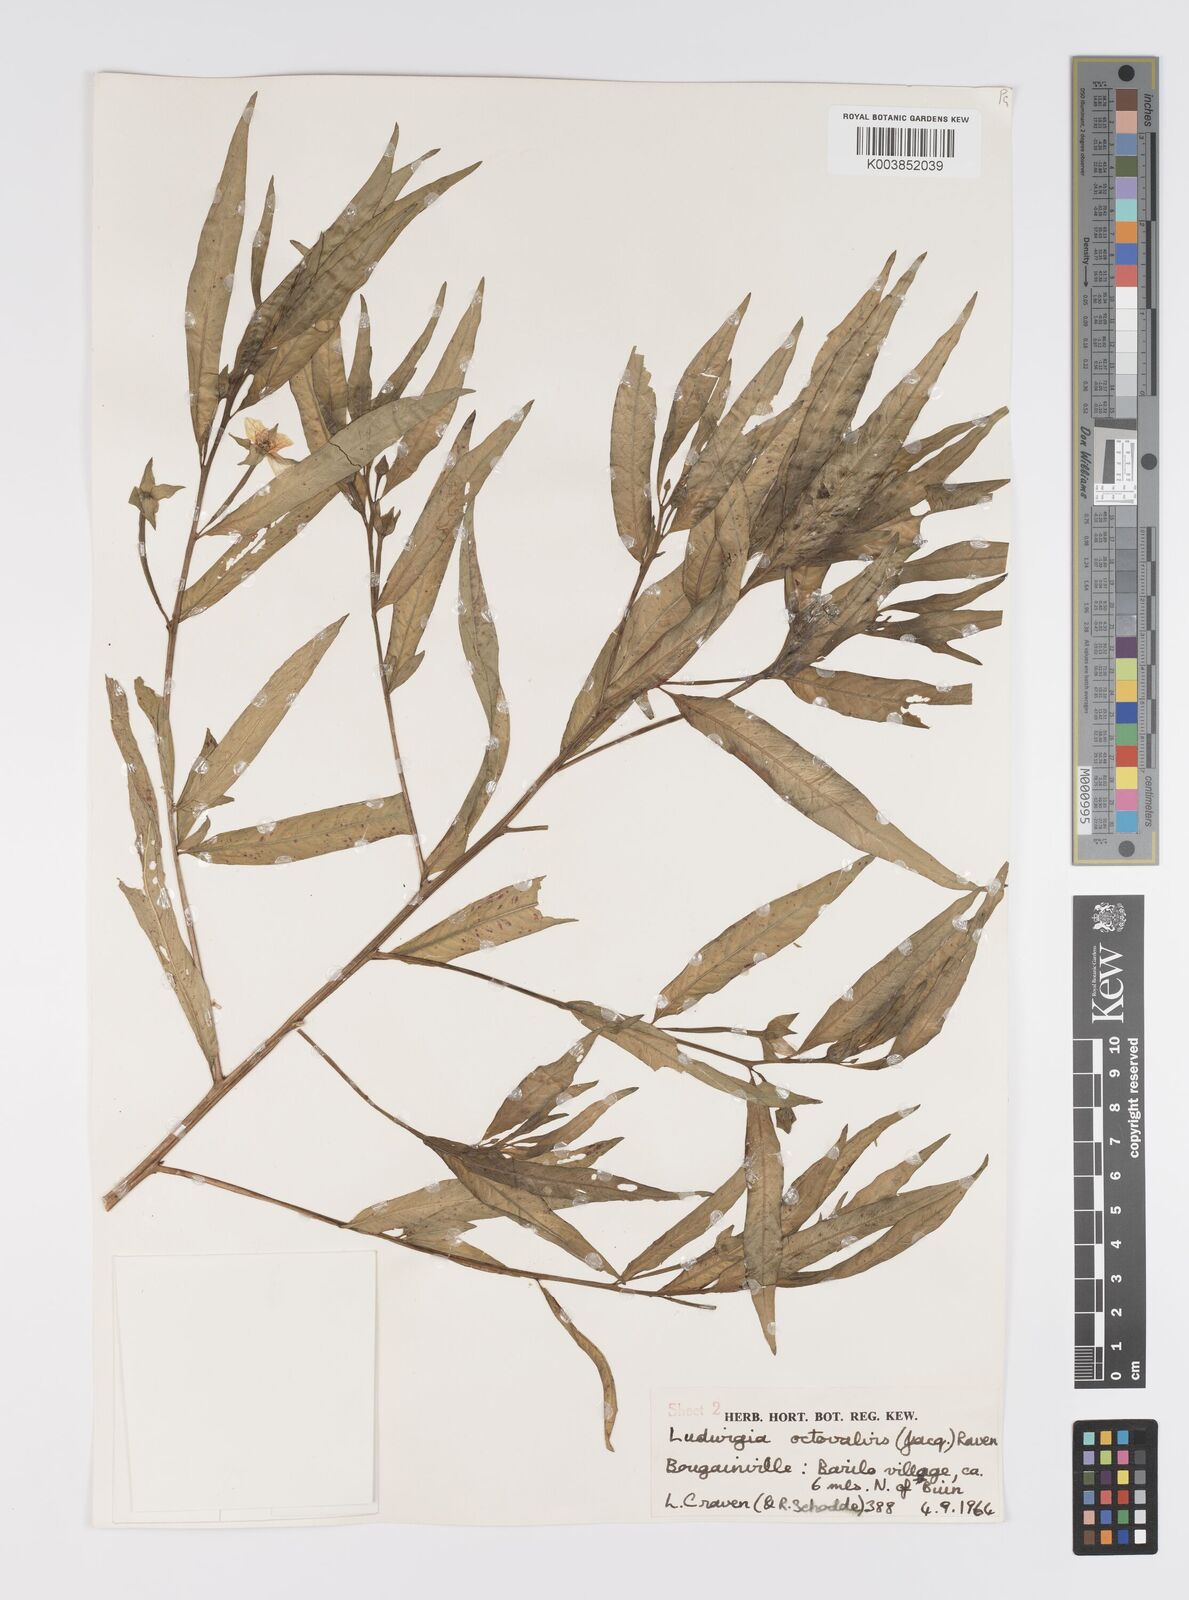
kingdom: Plantae
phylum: Tracheophyta
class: Magnoliopsida
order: Myrtales
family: Onagraceae
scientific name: Onagraceae
